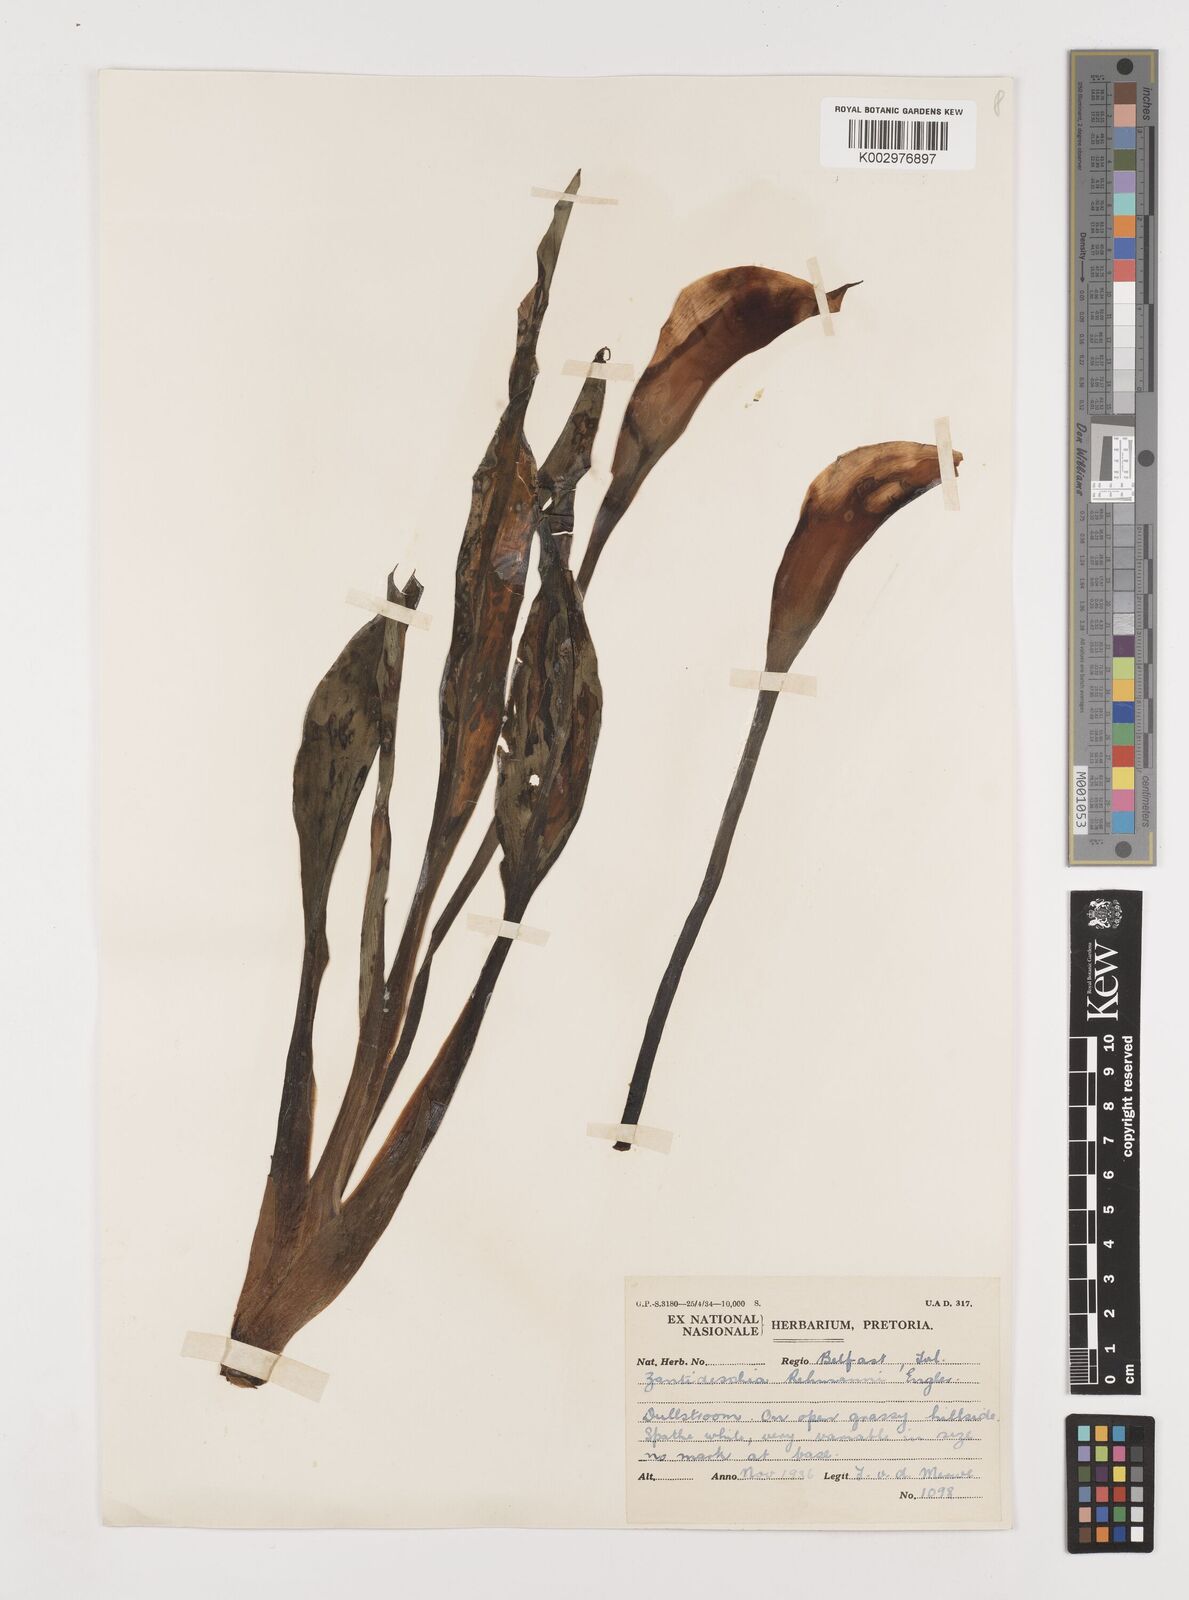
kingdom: Plantae
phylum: Tracheophyta
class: Liliopsida
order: Alismatales
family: Araceae
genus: Zantedeschia
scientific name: Zantedeschia rehmannii
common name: Red calla
